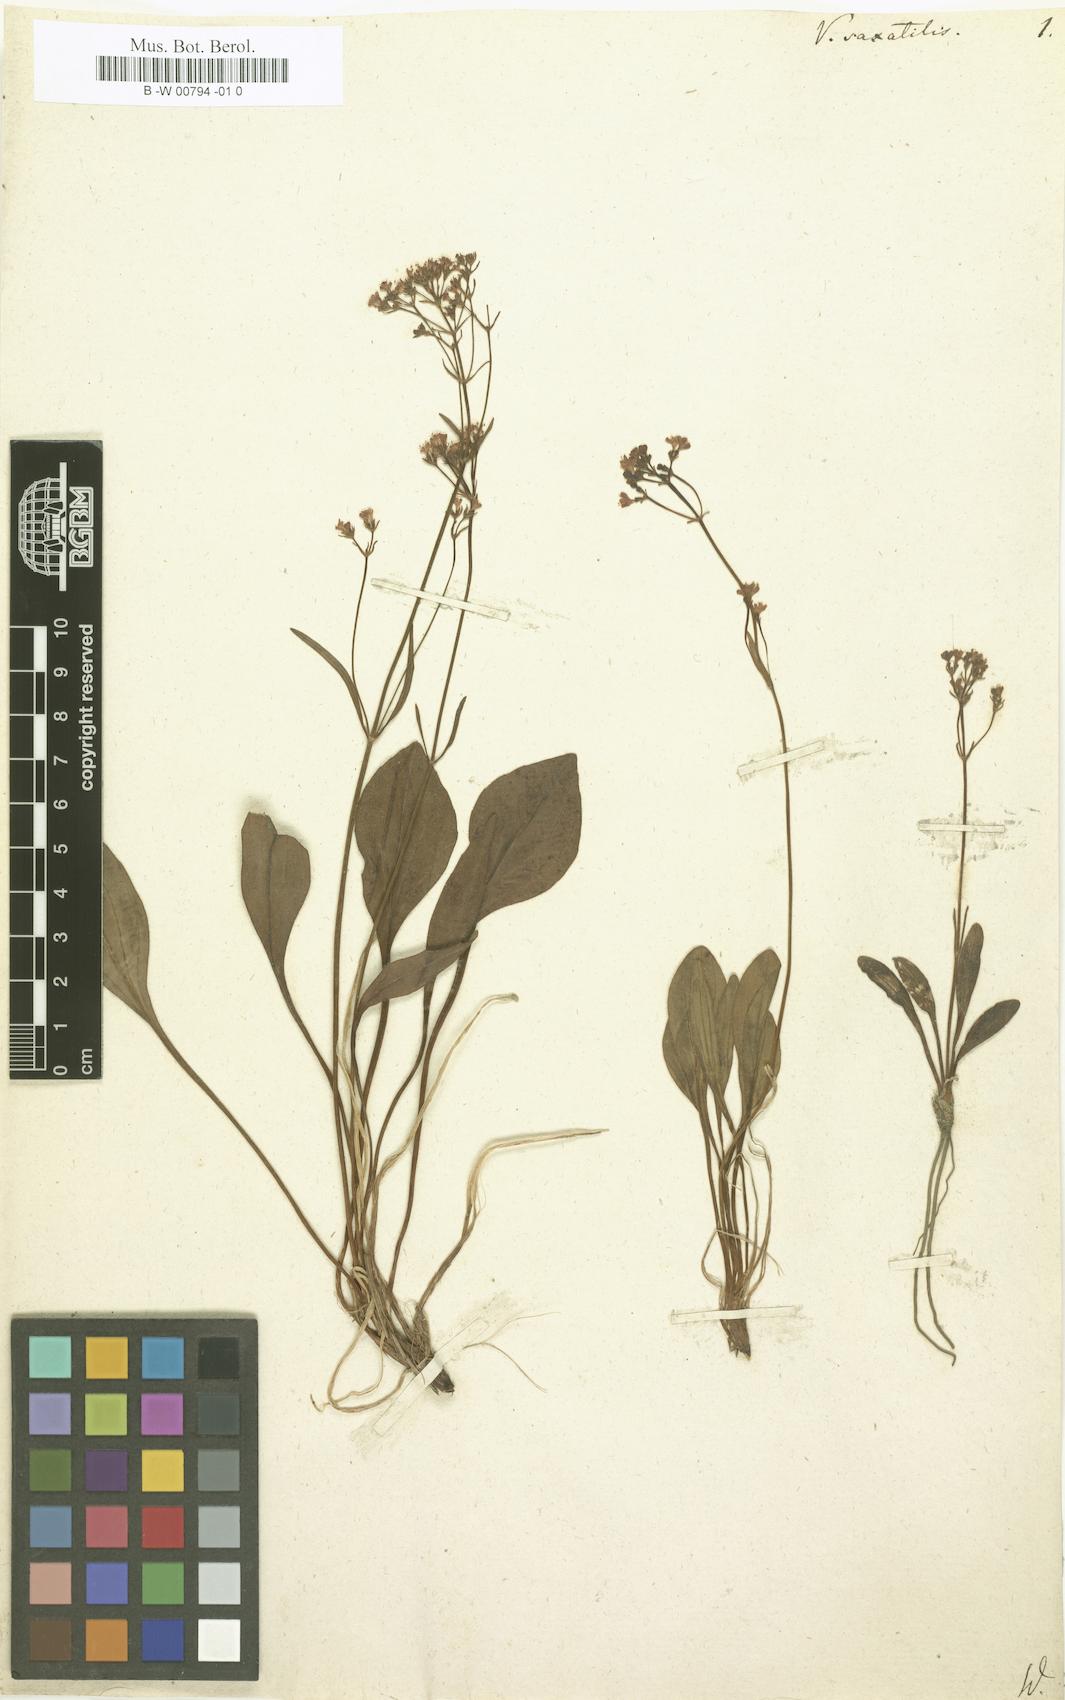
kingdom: Plantae
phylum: Tracheophyta
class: Magnoliopsida
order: Dipsacales
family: Caprifoliaceae
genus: Valeriana
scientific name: Valeriana saxatilis
